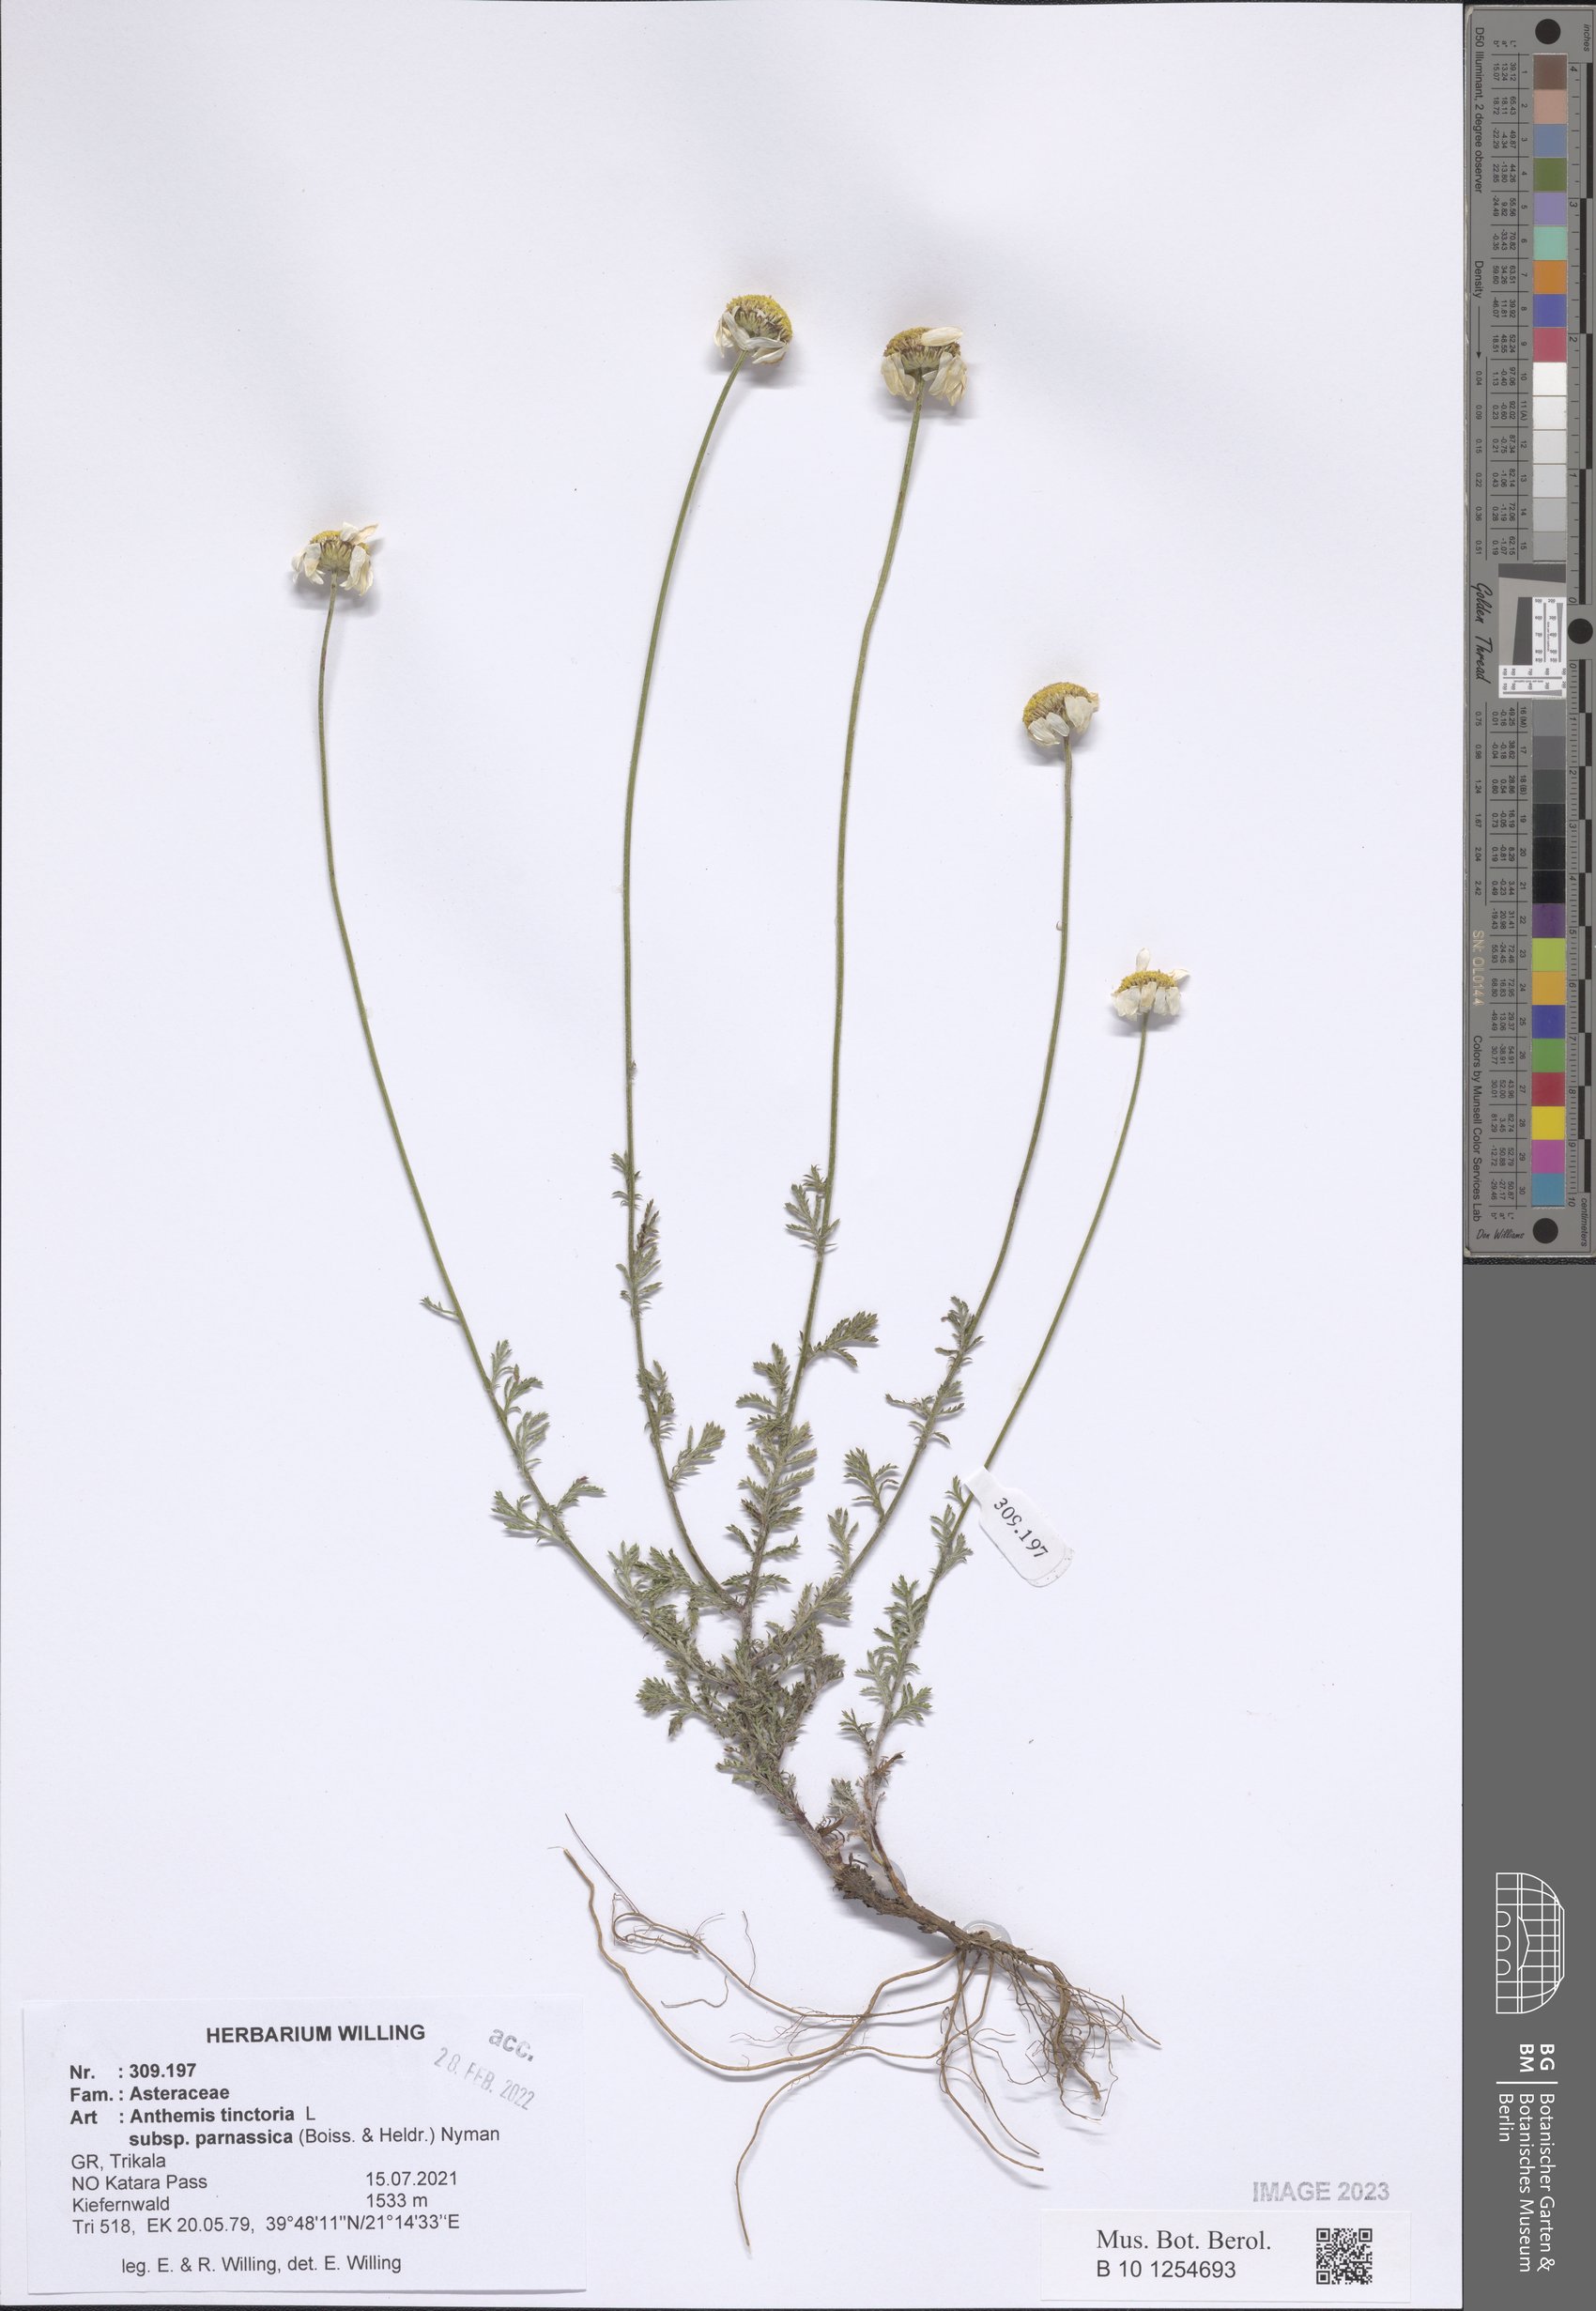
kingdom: Plantae
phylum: Tracheophyta
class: Magnoliopsida
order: Asterales
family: Asteraceae
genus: Cota
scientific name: Cota tinctoria
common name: Golden chamomile
